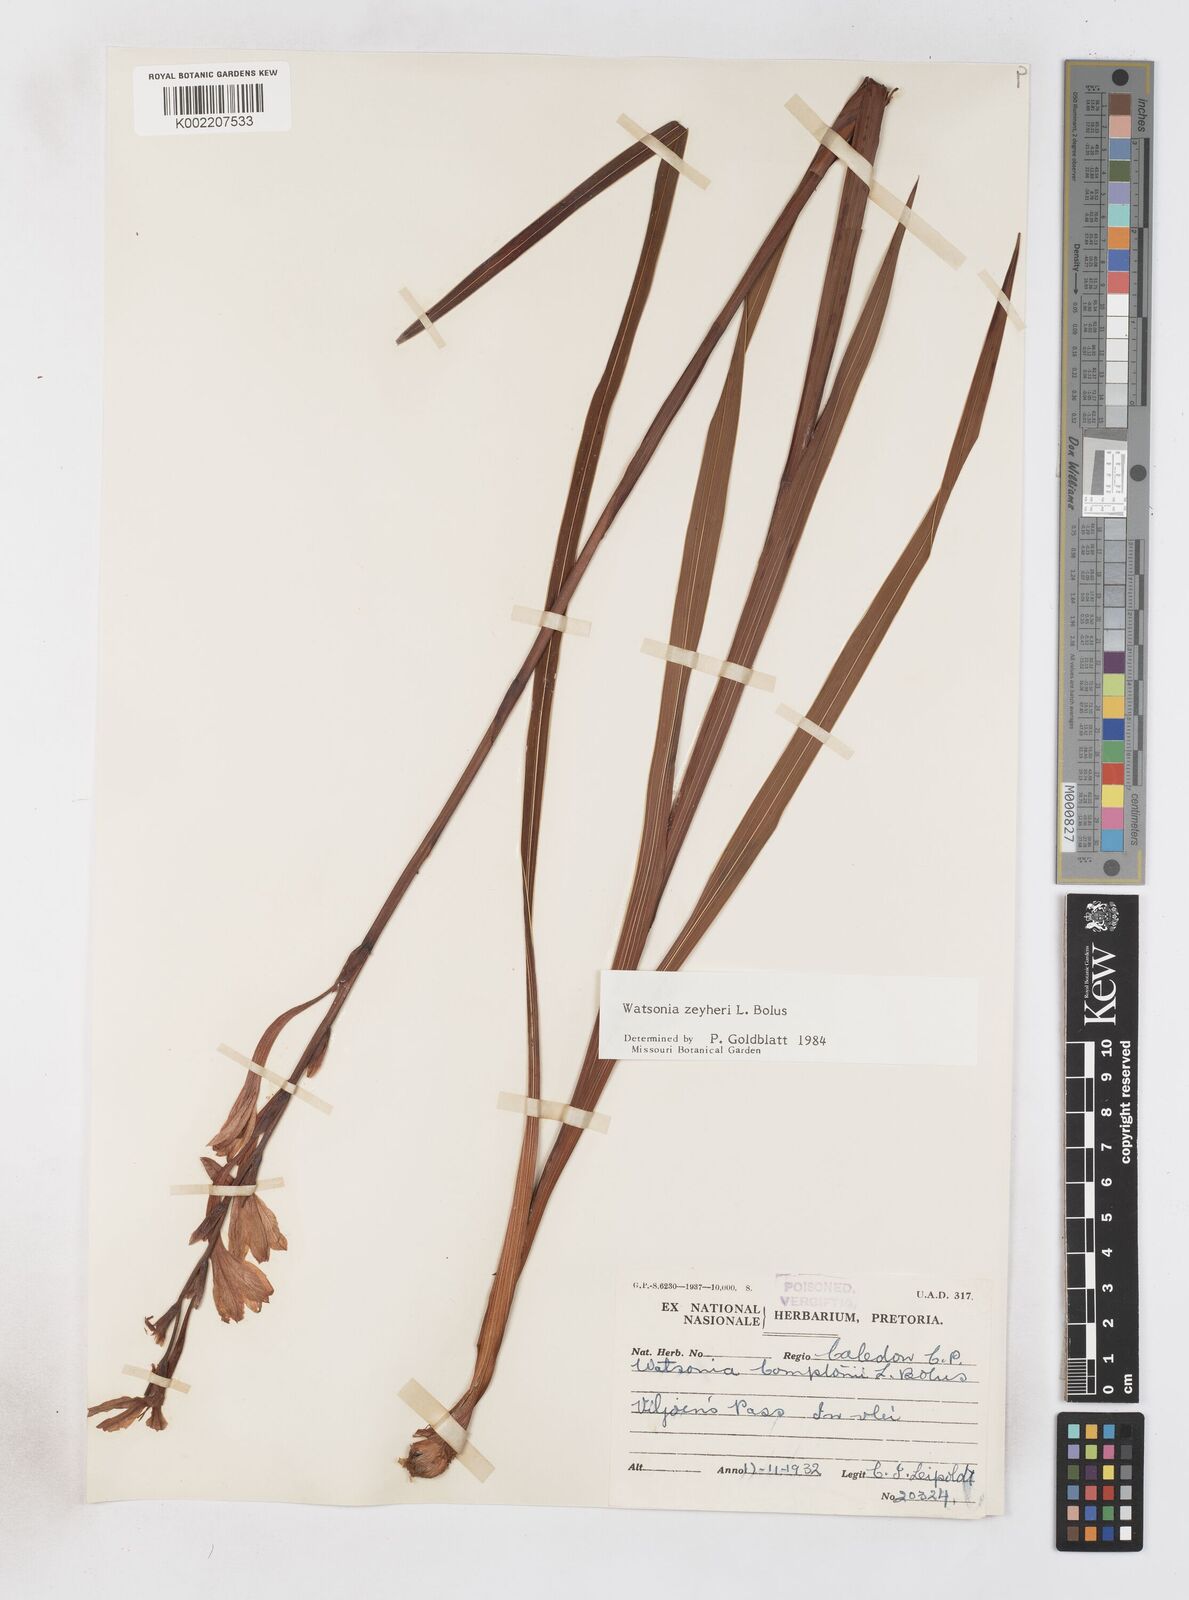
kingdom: Plantae
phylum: Tracheophyta
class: Liliopsida
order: Asparagales
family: Iridaceae
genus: Watsonia
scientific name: Watsonia zeyheri
